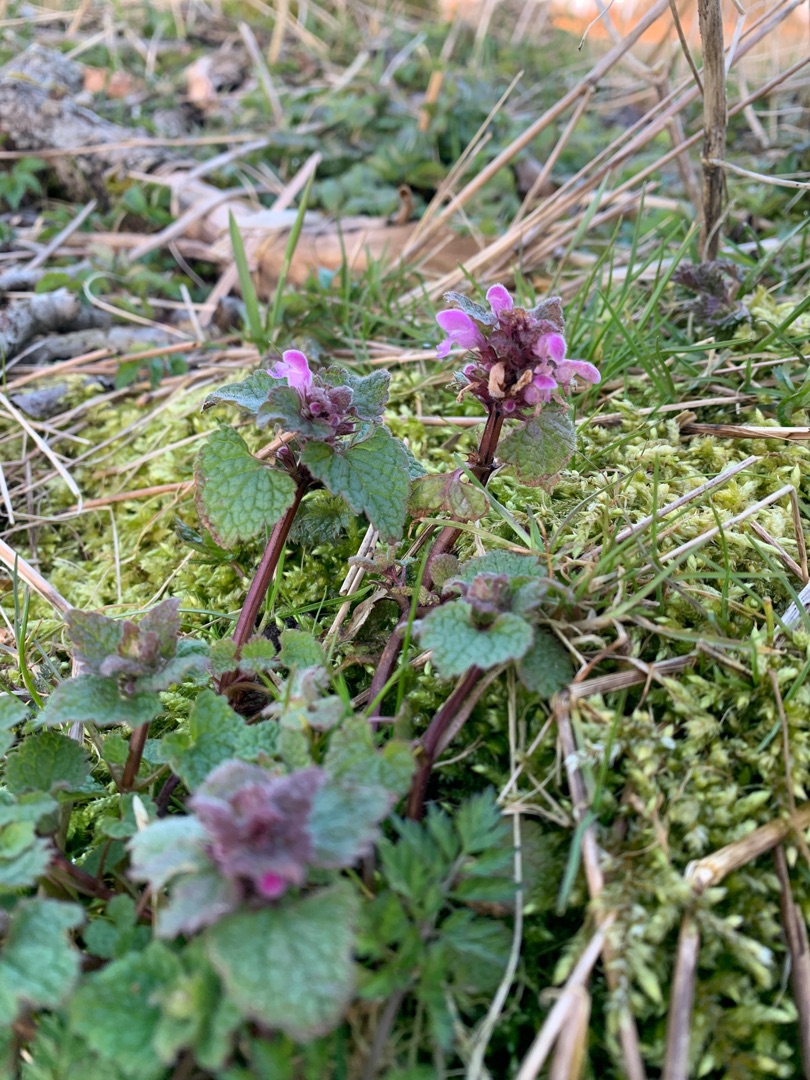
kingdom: Plantae
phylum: Tracheophyta
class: Magnoliopsida
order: Lamiales
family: Lamiaceae
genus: Lamium
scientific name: Lamium purpureum
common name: Rød tvetand
